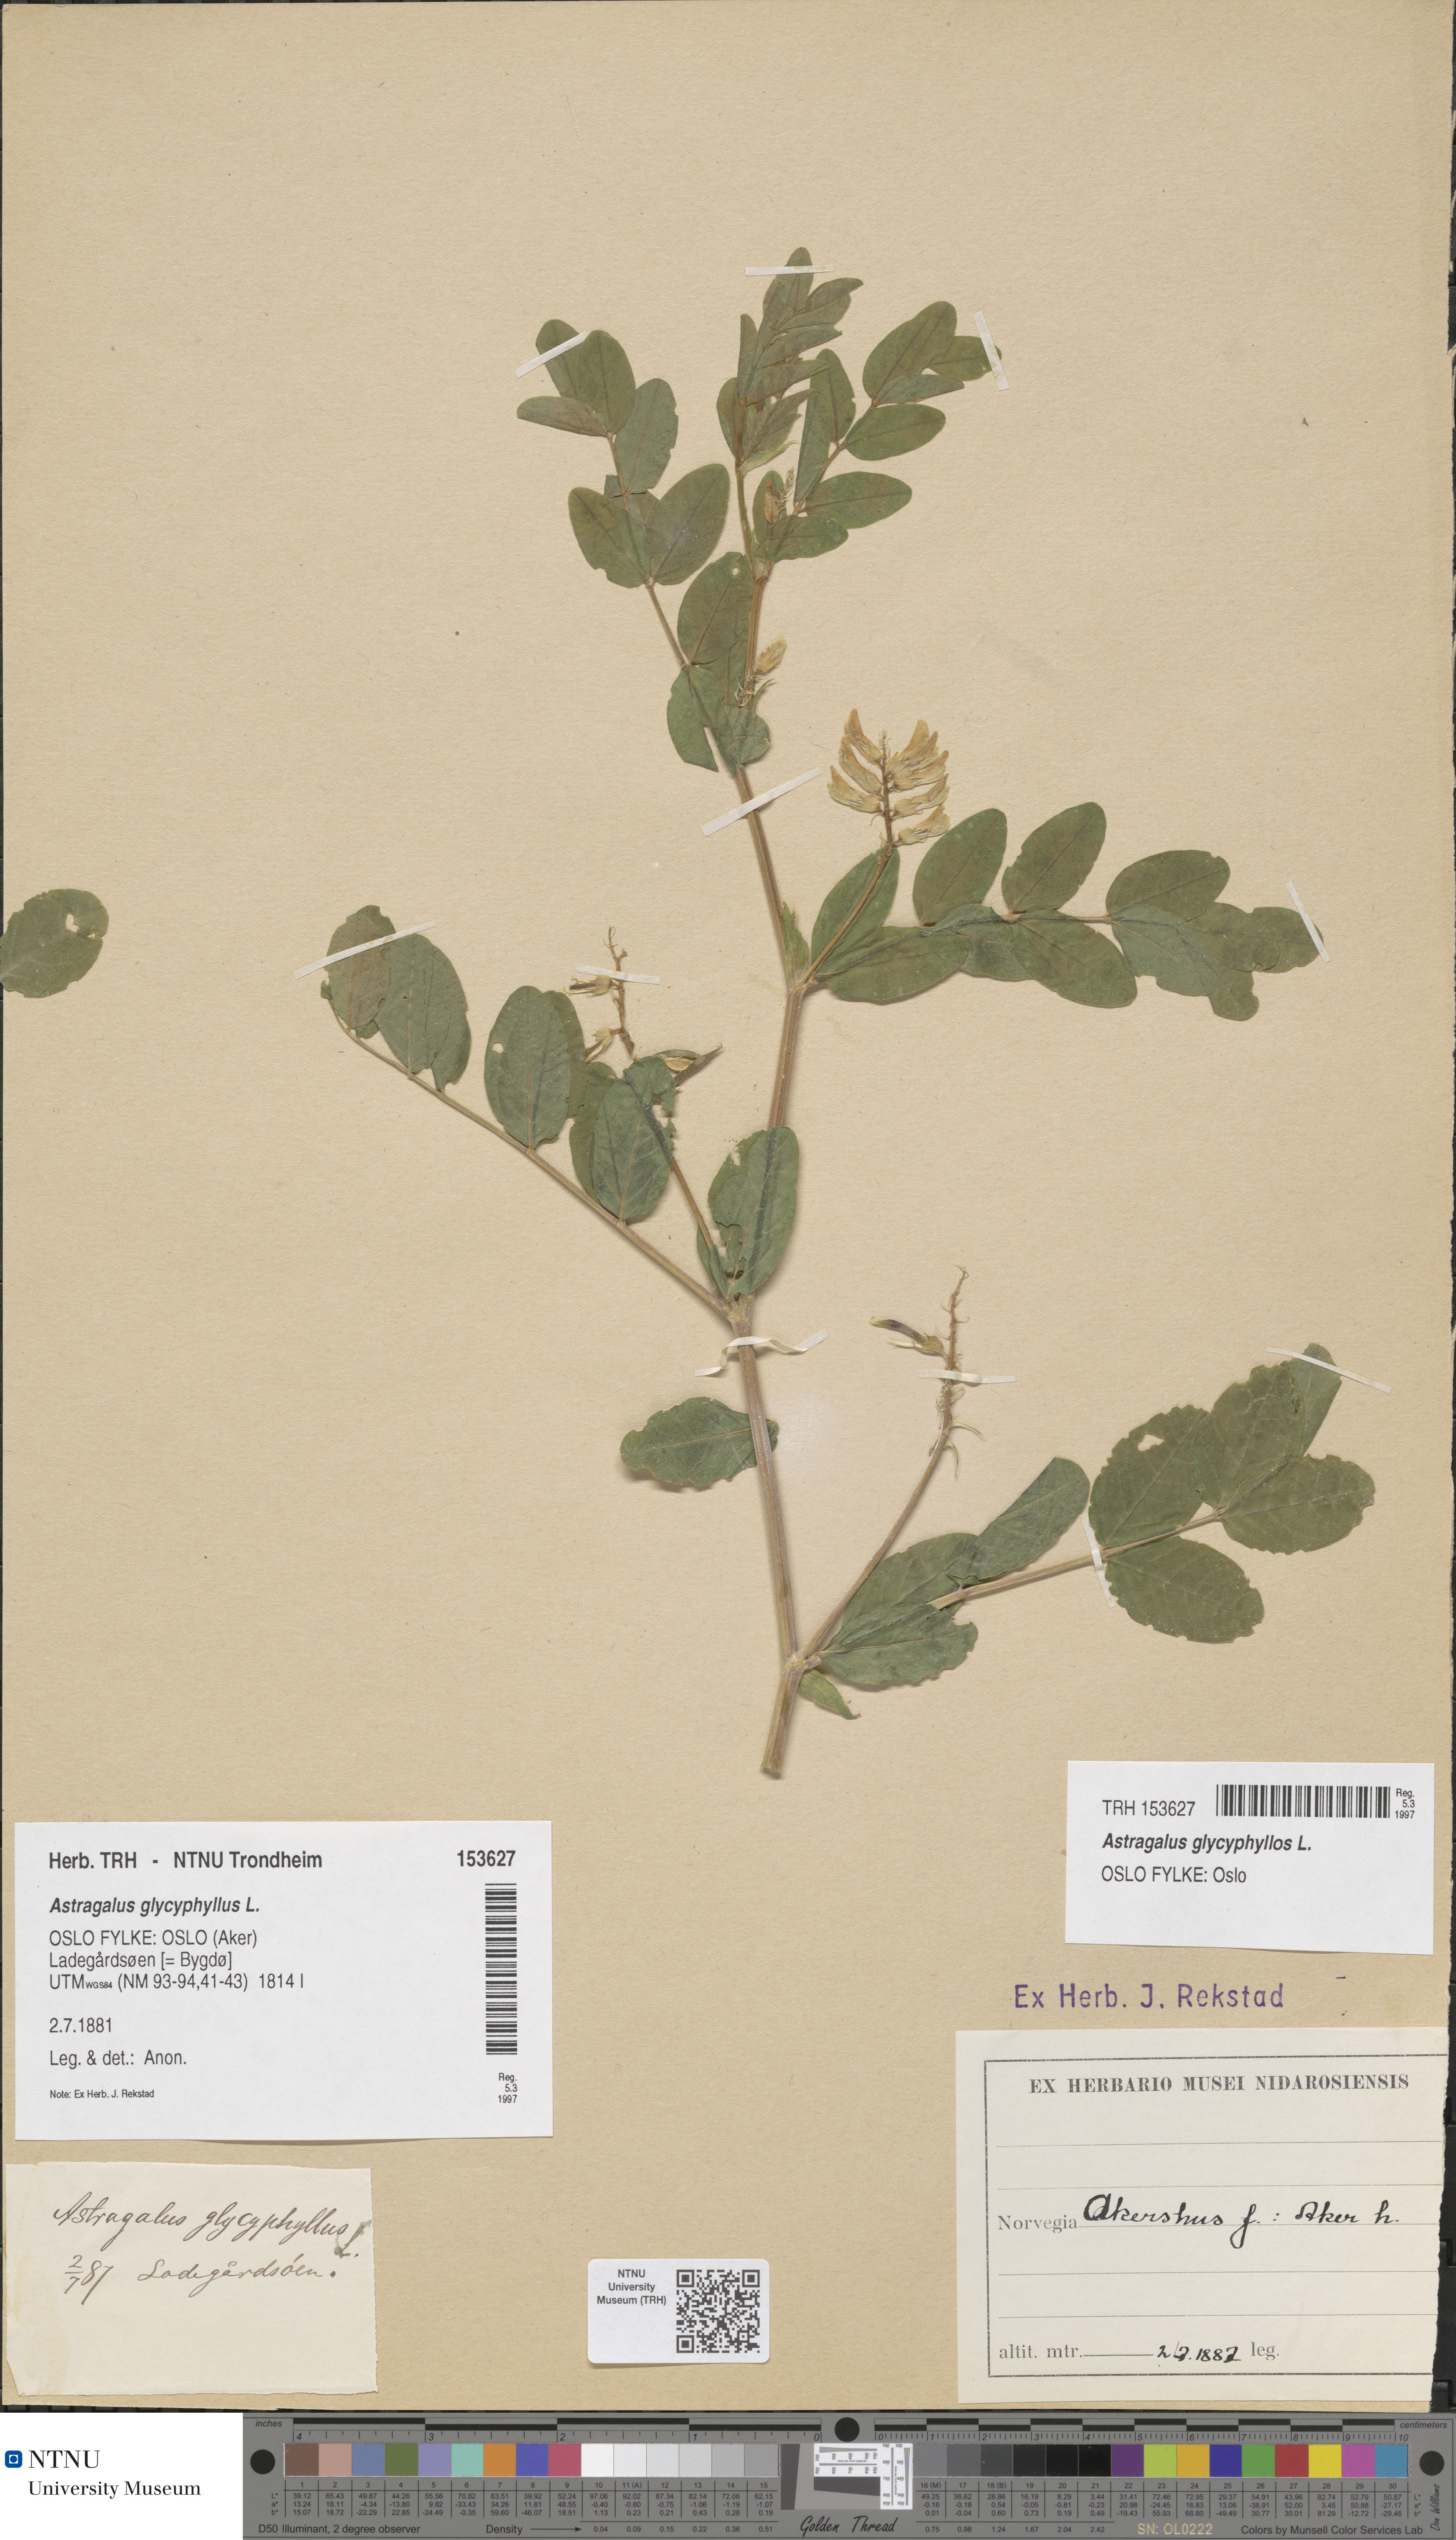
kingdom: Plantae
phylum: Tracheophyta
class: Magnoliopsida
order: Fabales
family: Fabaceae
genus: Astragalus
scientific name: Astragalus glycyphyllos
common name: Wild liquorice
